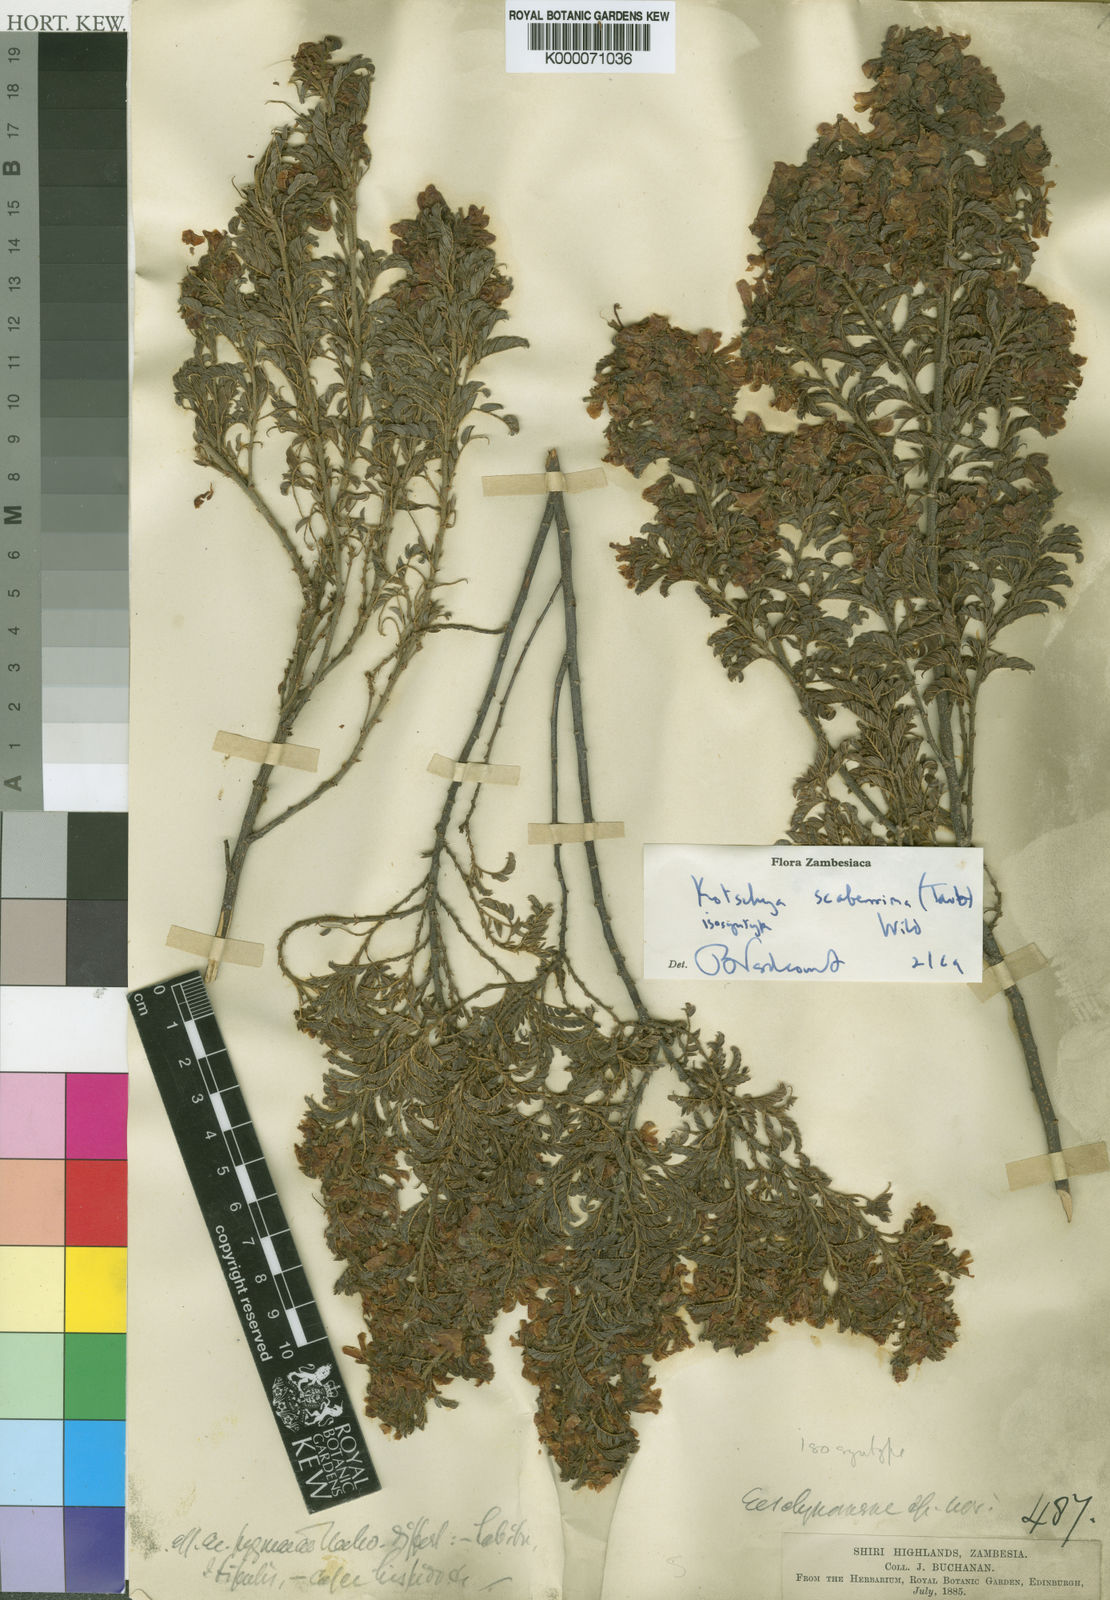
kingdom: Plantae
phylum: Tracheophyta
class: Magnoliopsida
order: Fabales
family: Fabaceae
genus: Kotschya
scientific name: Kotschya scaberrima
